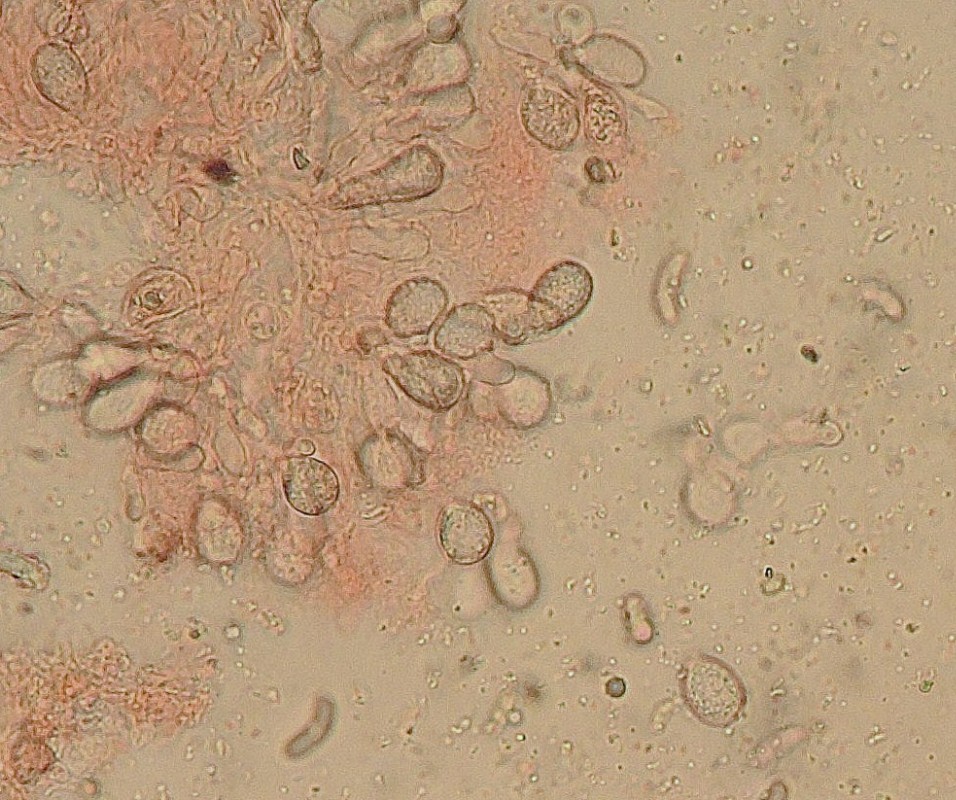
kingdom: Fungi
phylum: Basidiomycota
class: Tremellomycetes
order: Tremellales
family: Exidiaceae
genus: Exidiopsis
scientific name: Exidiopsis effusa
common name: smuk bævrehinde
